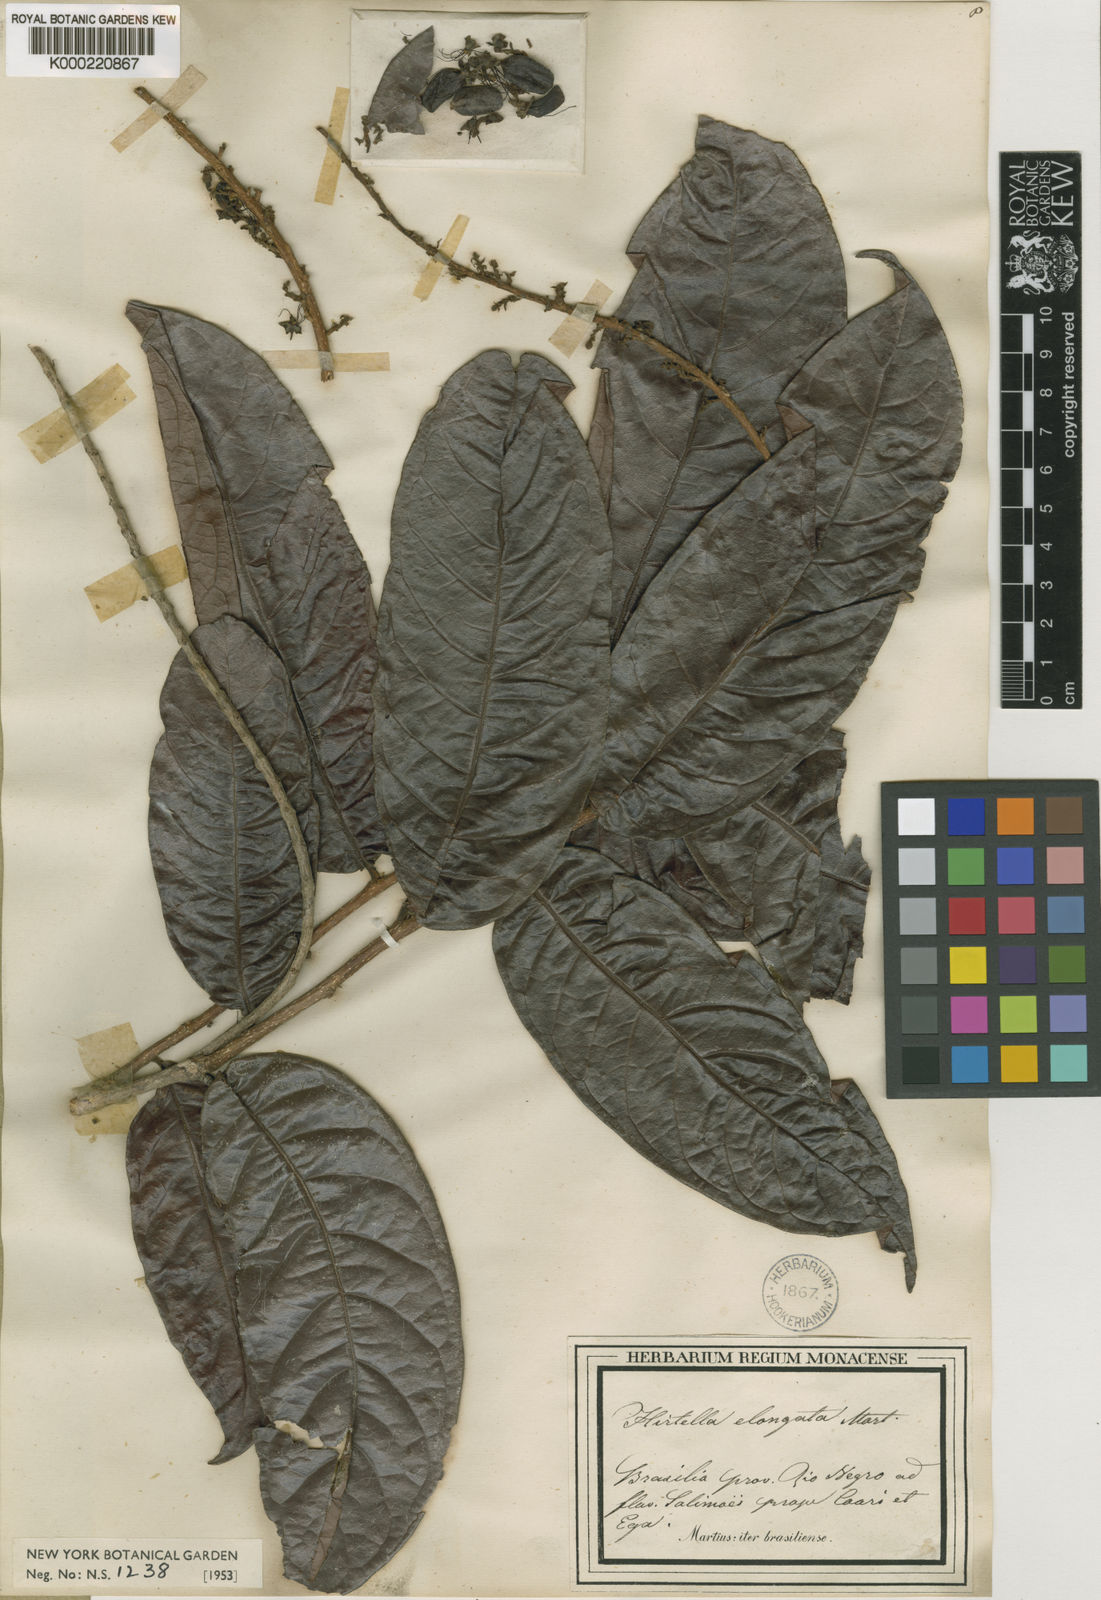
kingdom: Plantae
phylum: Tracheophyta
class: Magnoliopsida
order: Malpighiales
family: Chrysobalanaceae
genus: Hirtella
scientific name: Hirtella elongata
